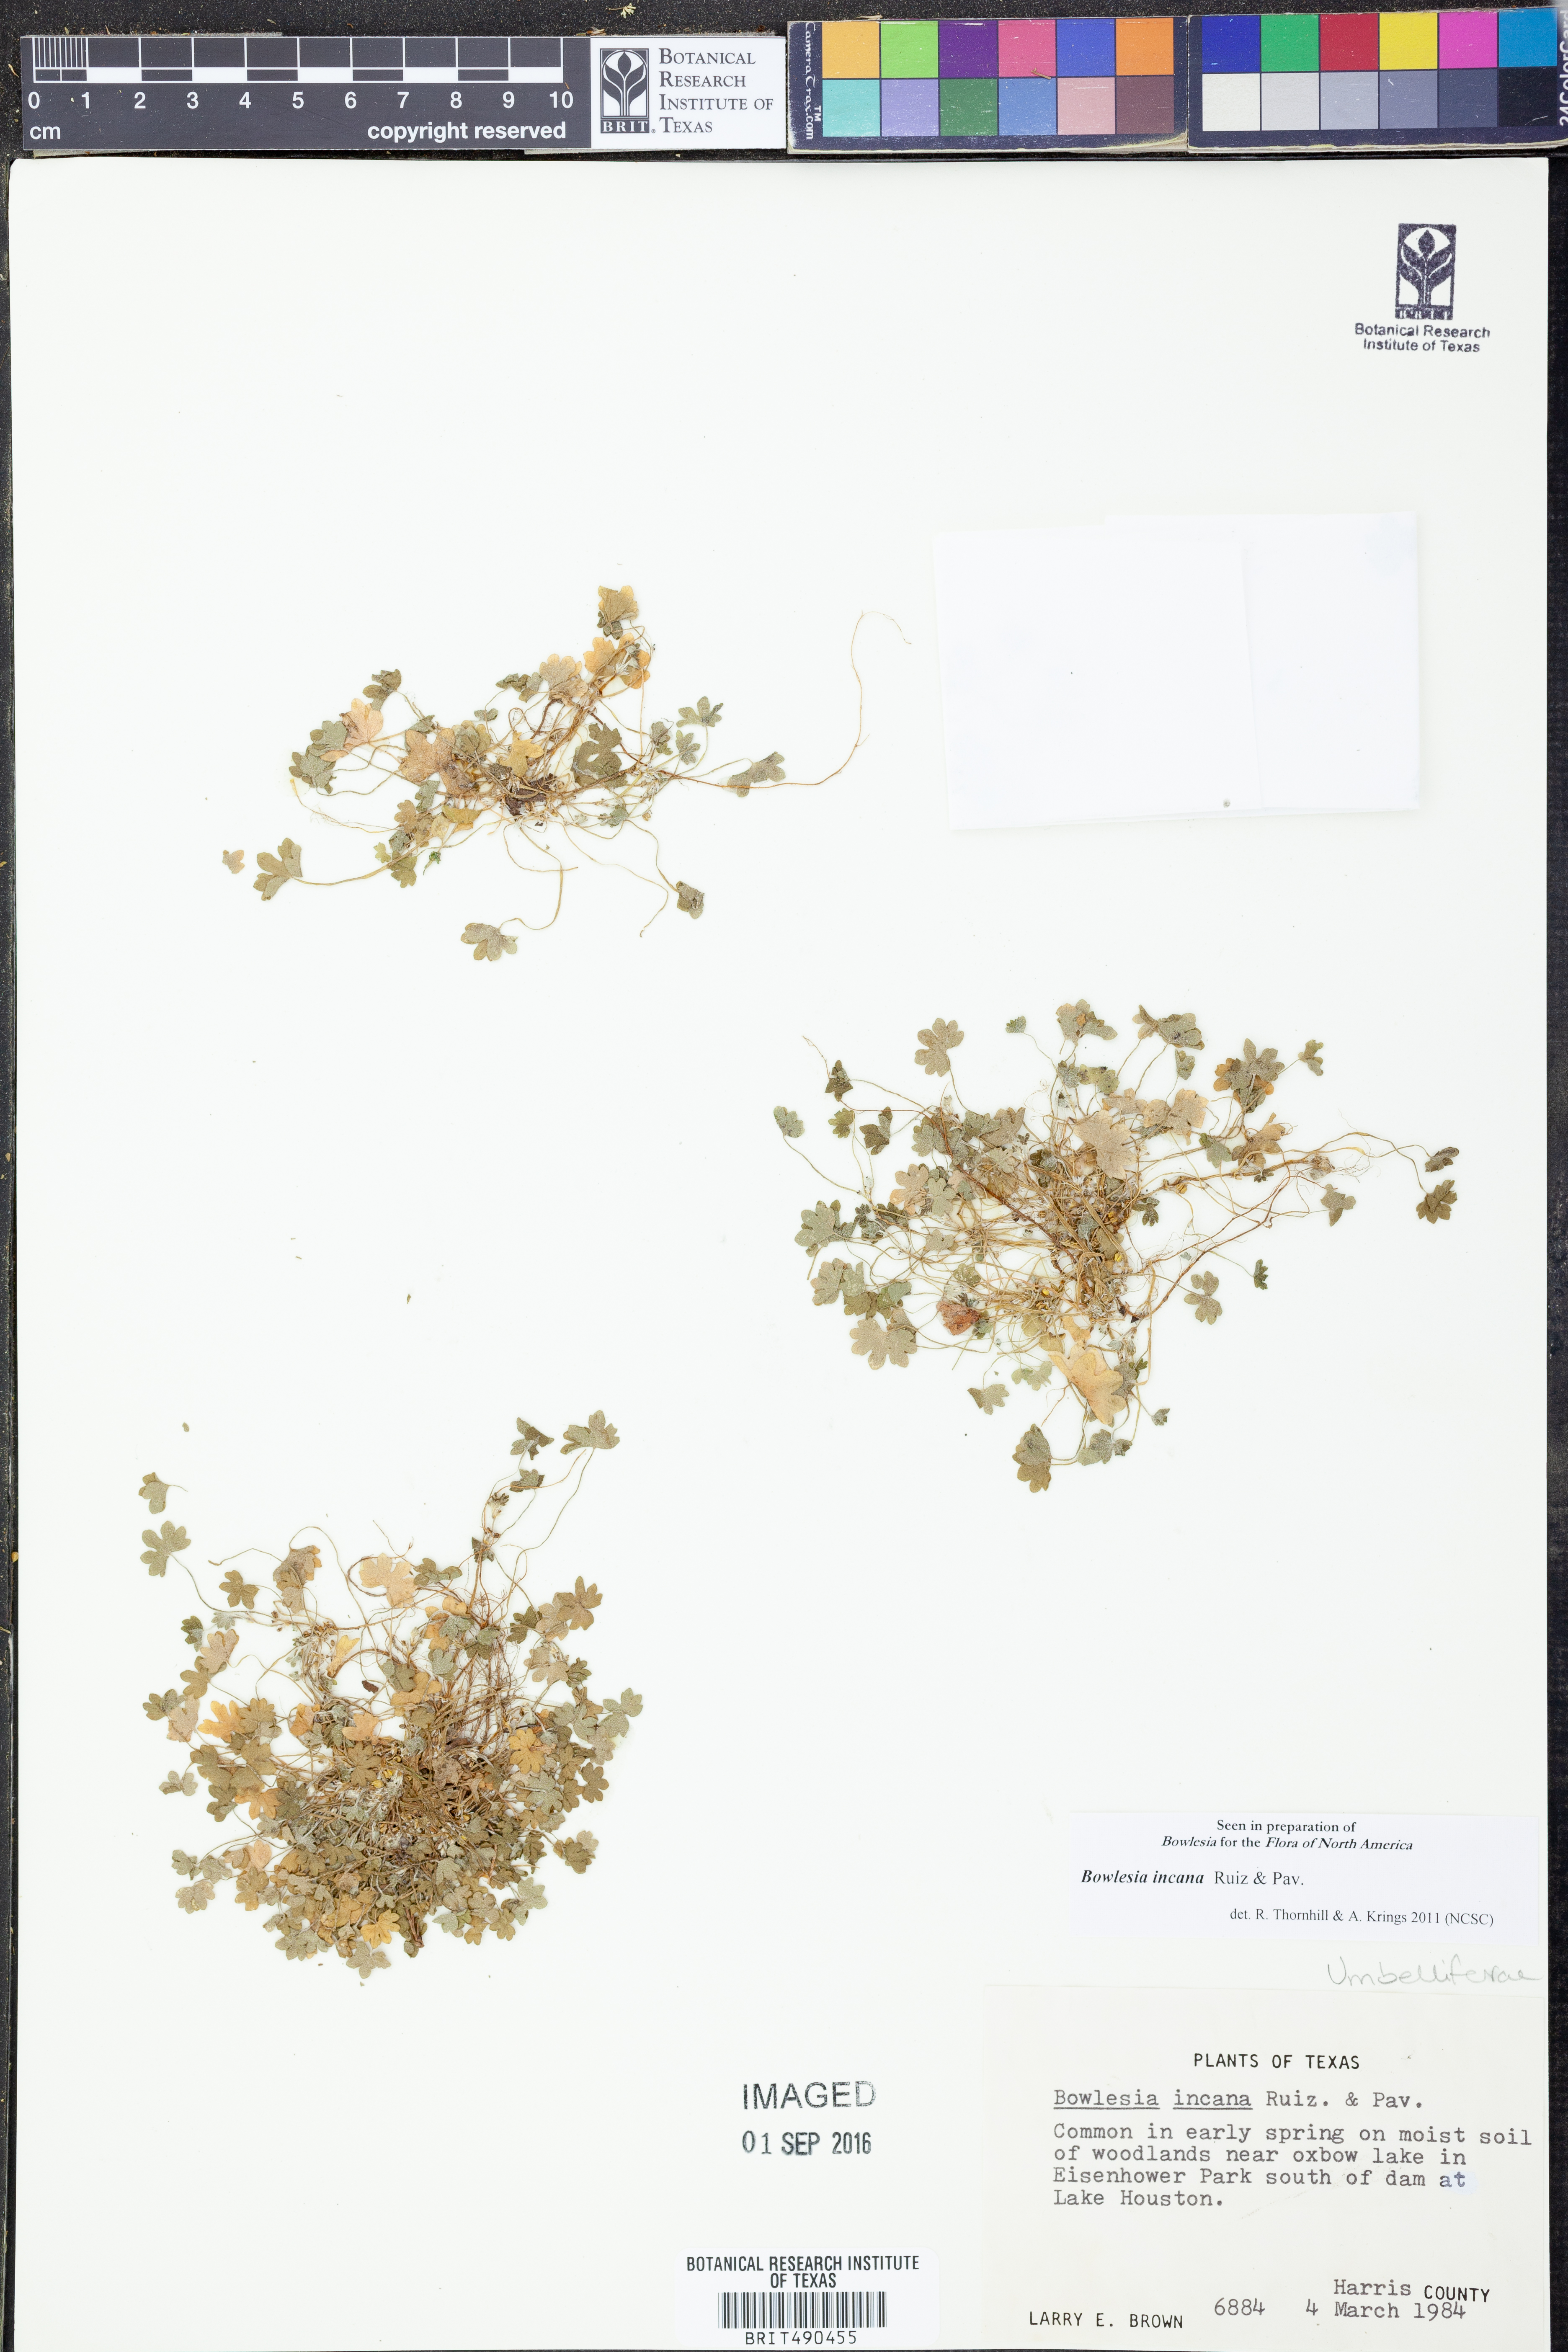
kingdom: Plantae
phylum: Tracheophyta
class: Magnoliopsida
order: Apiales
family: Apiaceae
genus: Bowlesia
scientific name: Bowlesia incana
